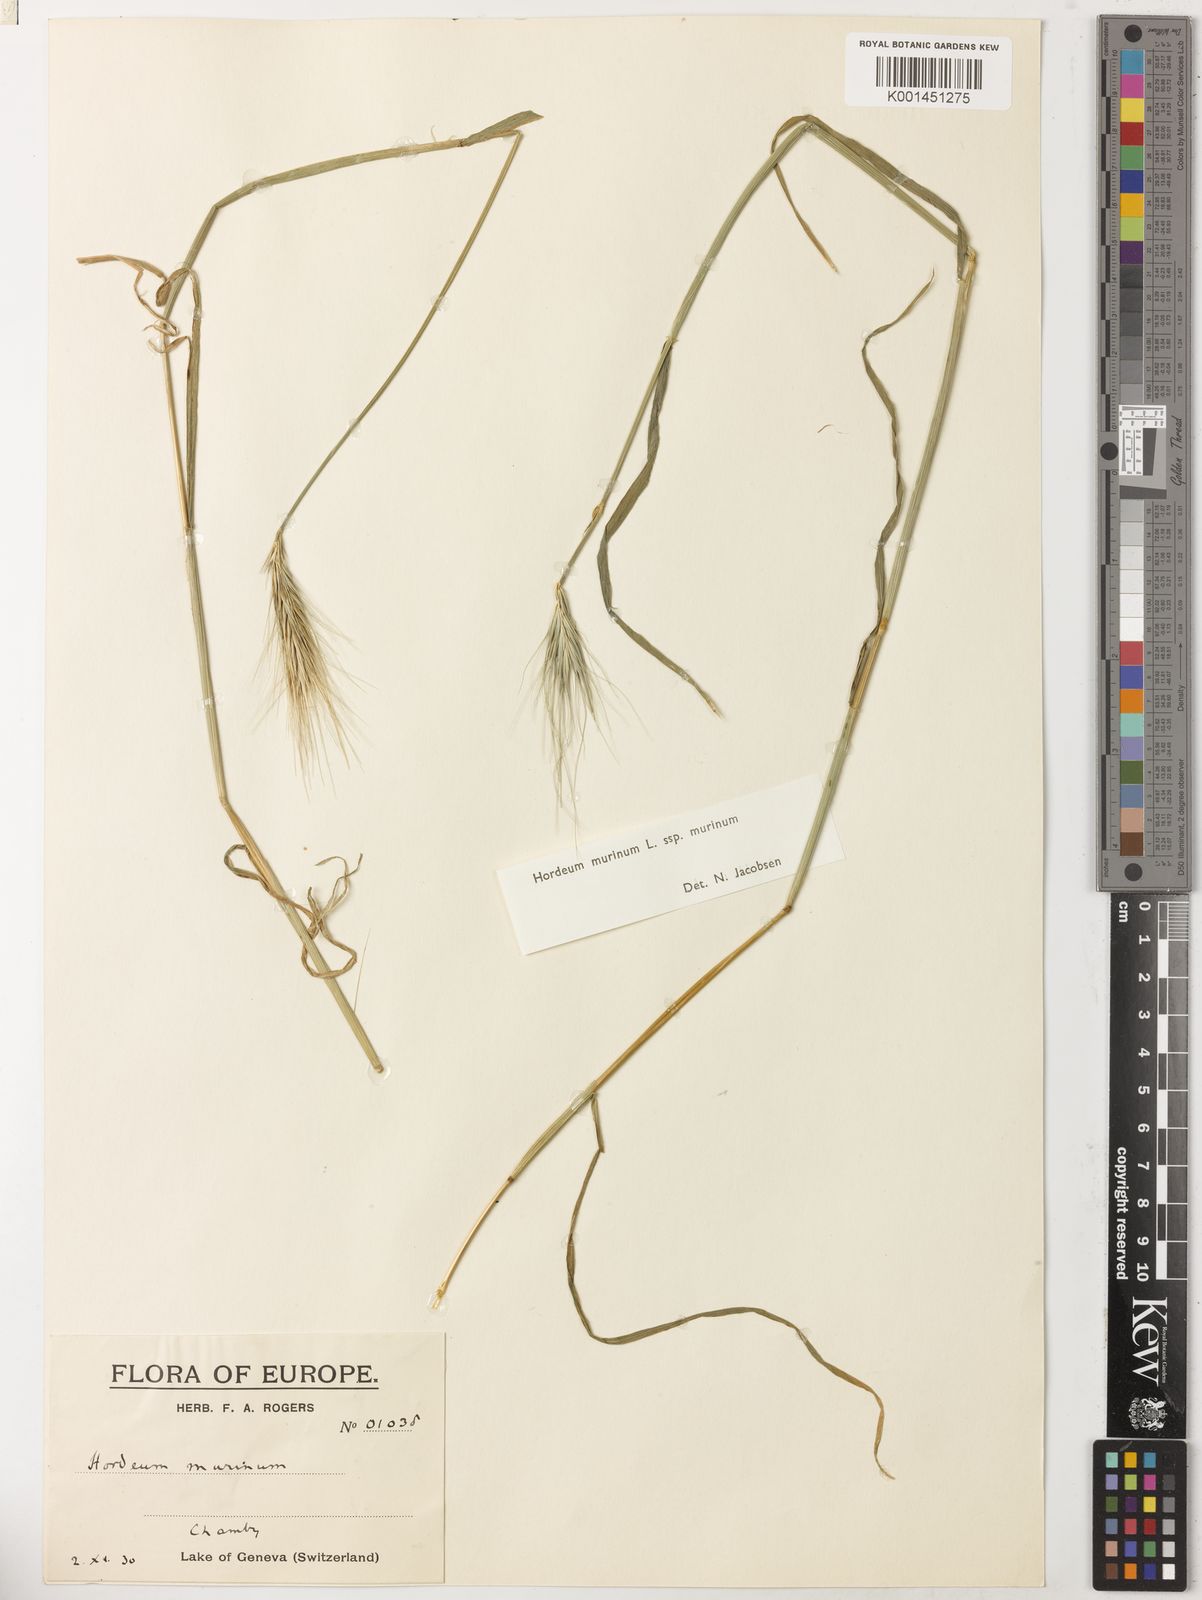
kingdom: Plantae
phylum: Tracheophyta
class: Liliopsida
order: Poales
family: Poaceae
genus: Hordeum
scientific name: Hordeum murinum
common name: Wall barley
